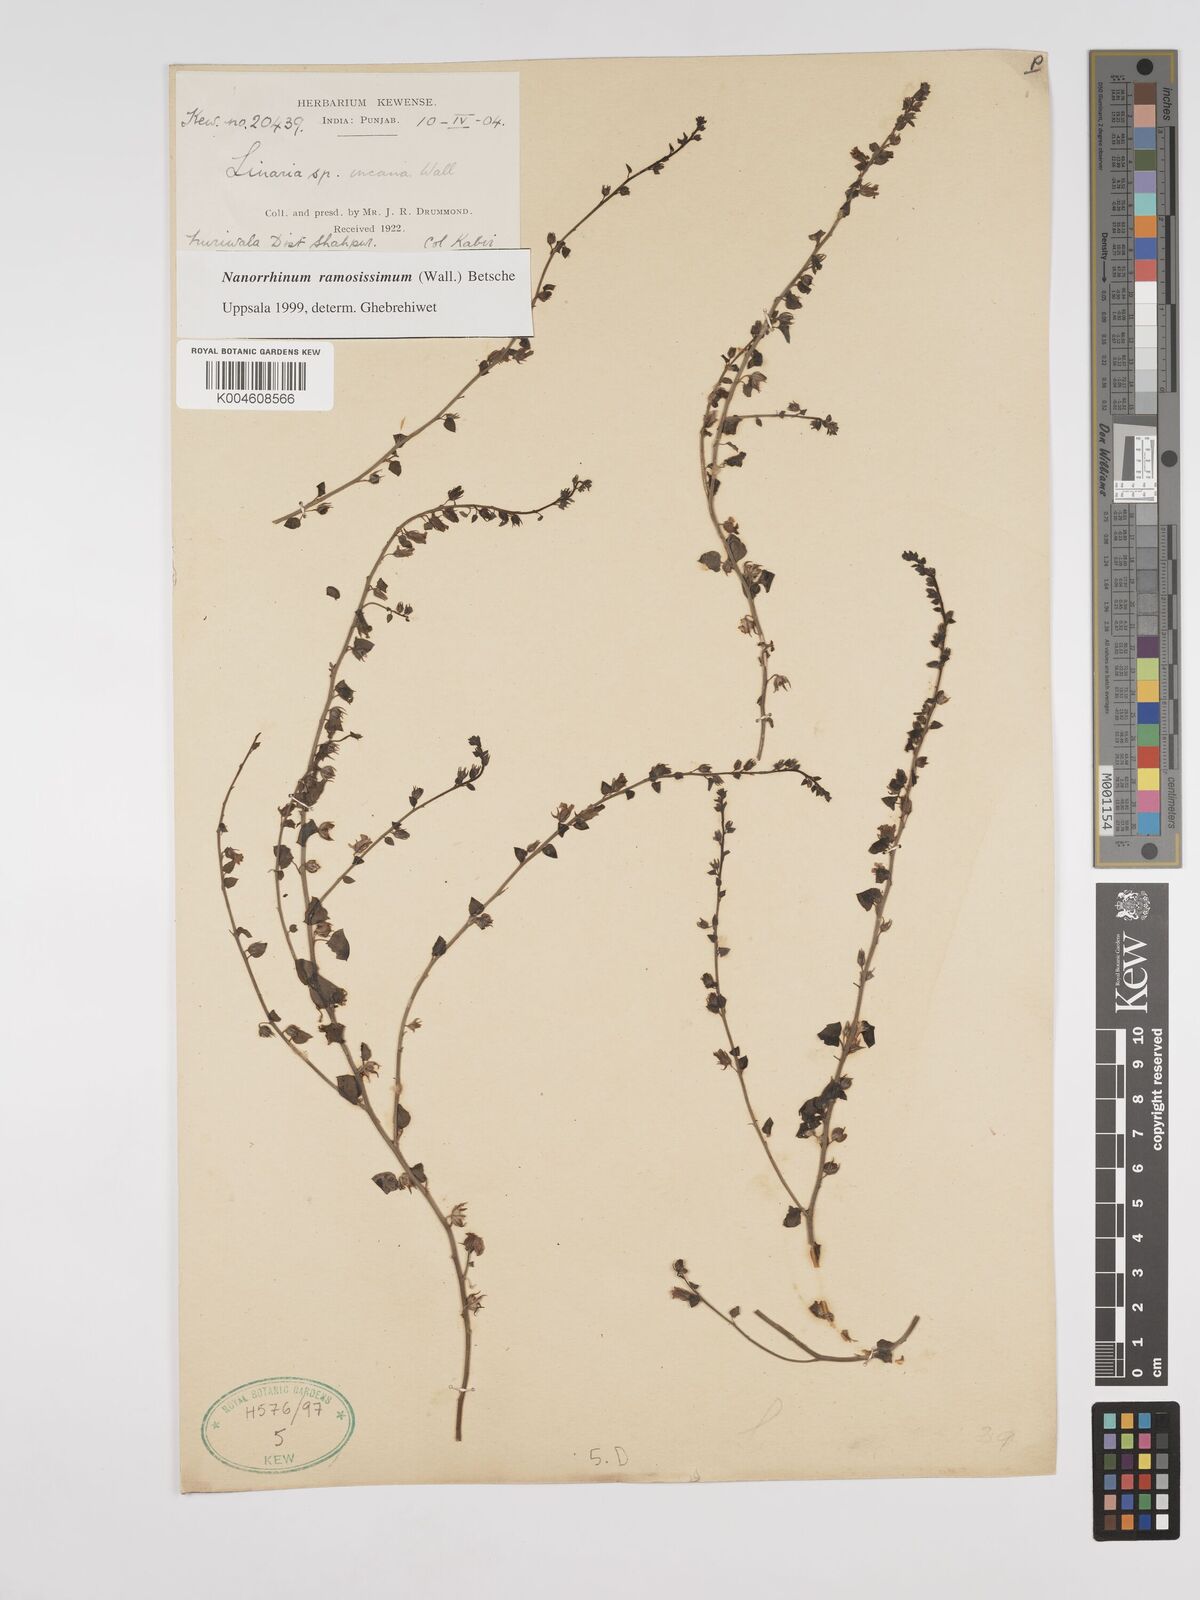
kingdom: Plantae
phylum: Tracheophyta
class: Magnoliopsida
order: Lamiales
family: Plantaginaceae
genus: Nanorrhinum
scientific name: Nanorrhinum ramosissimum
